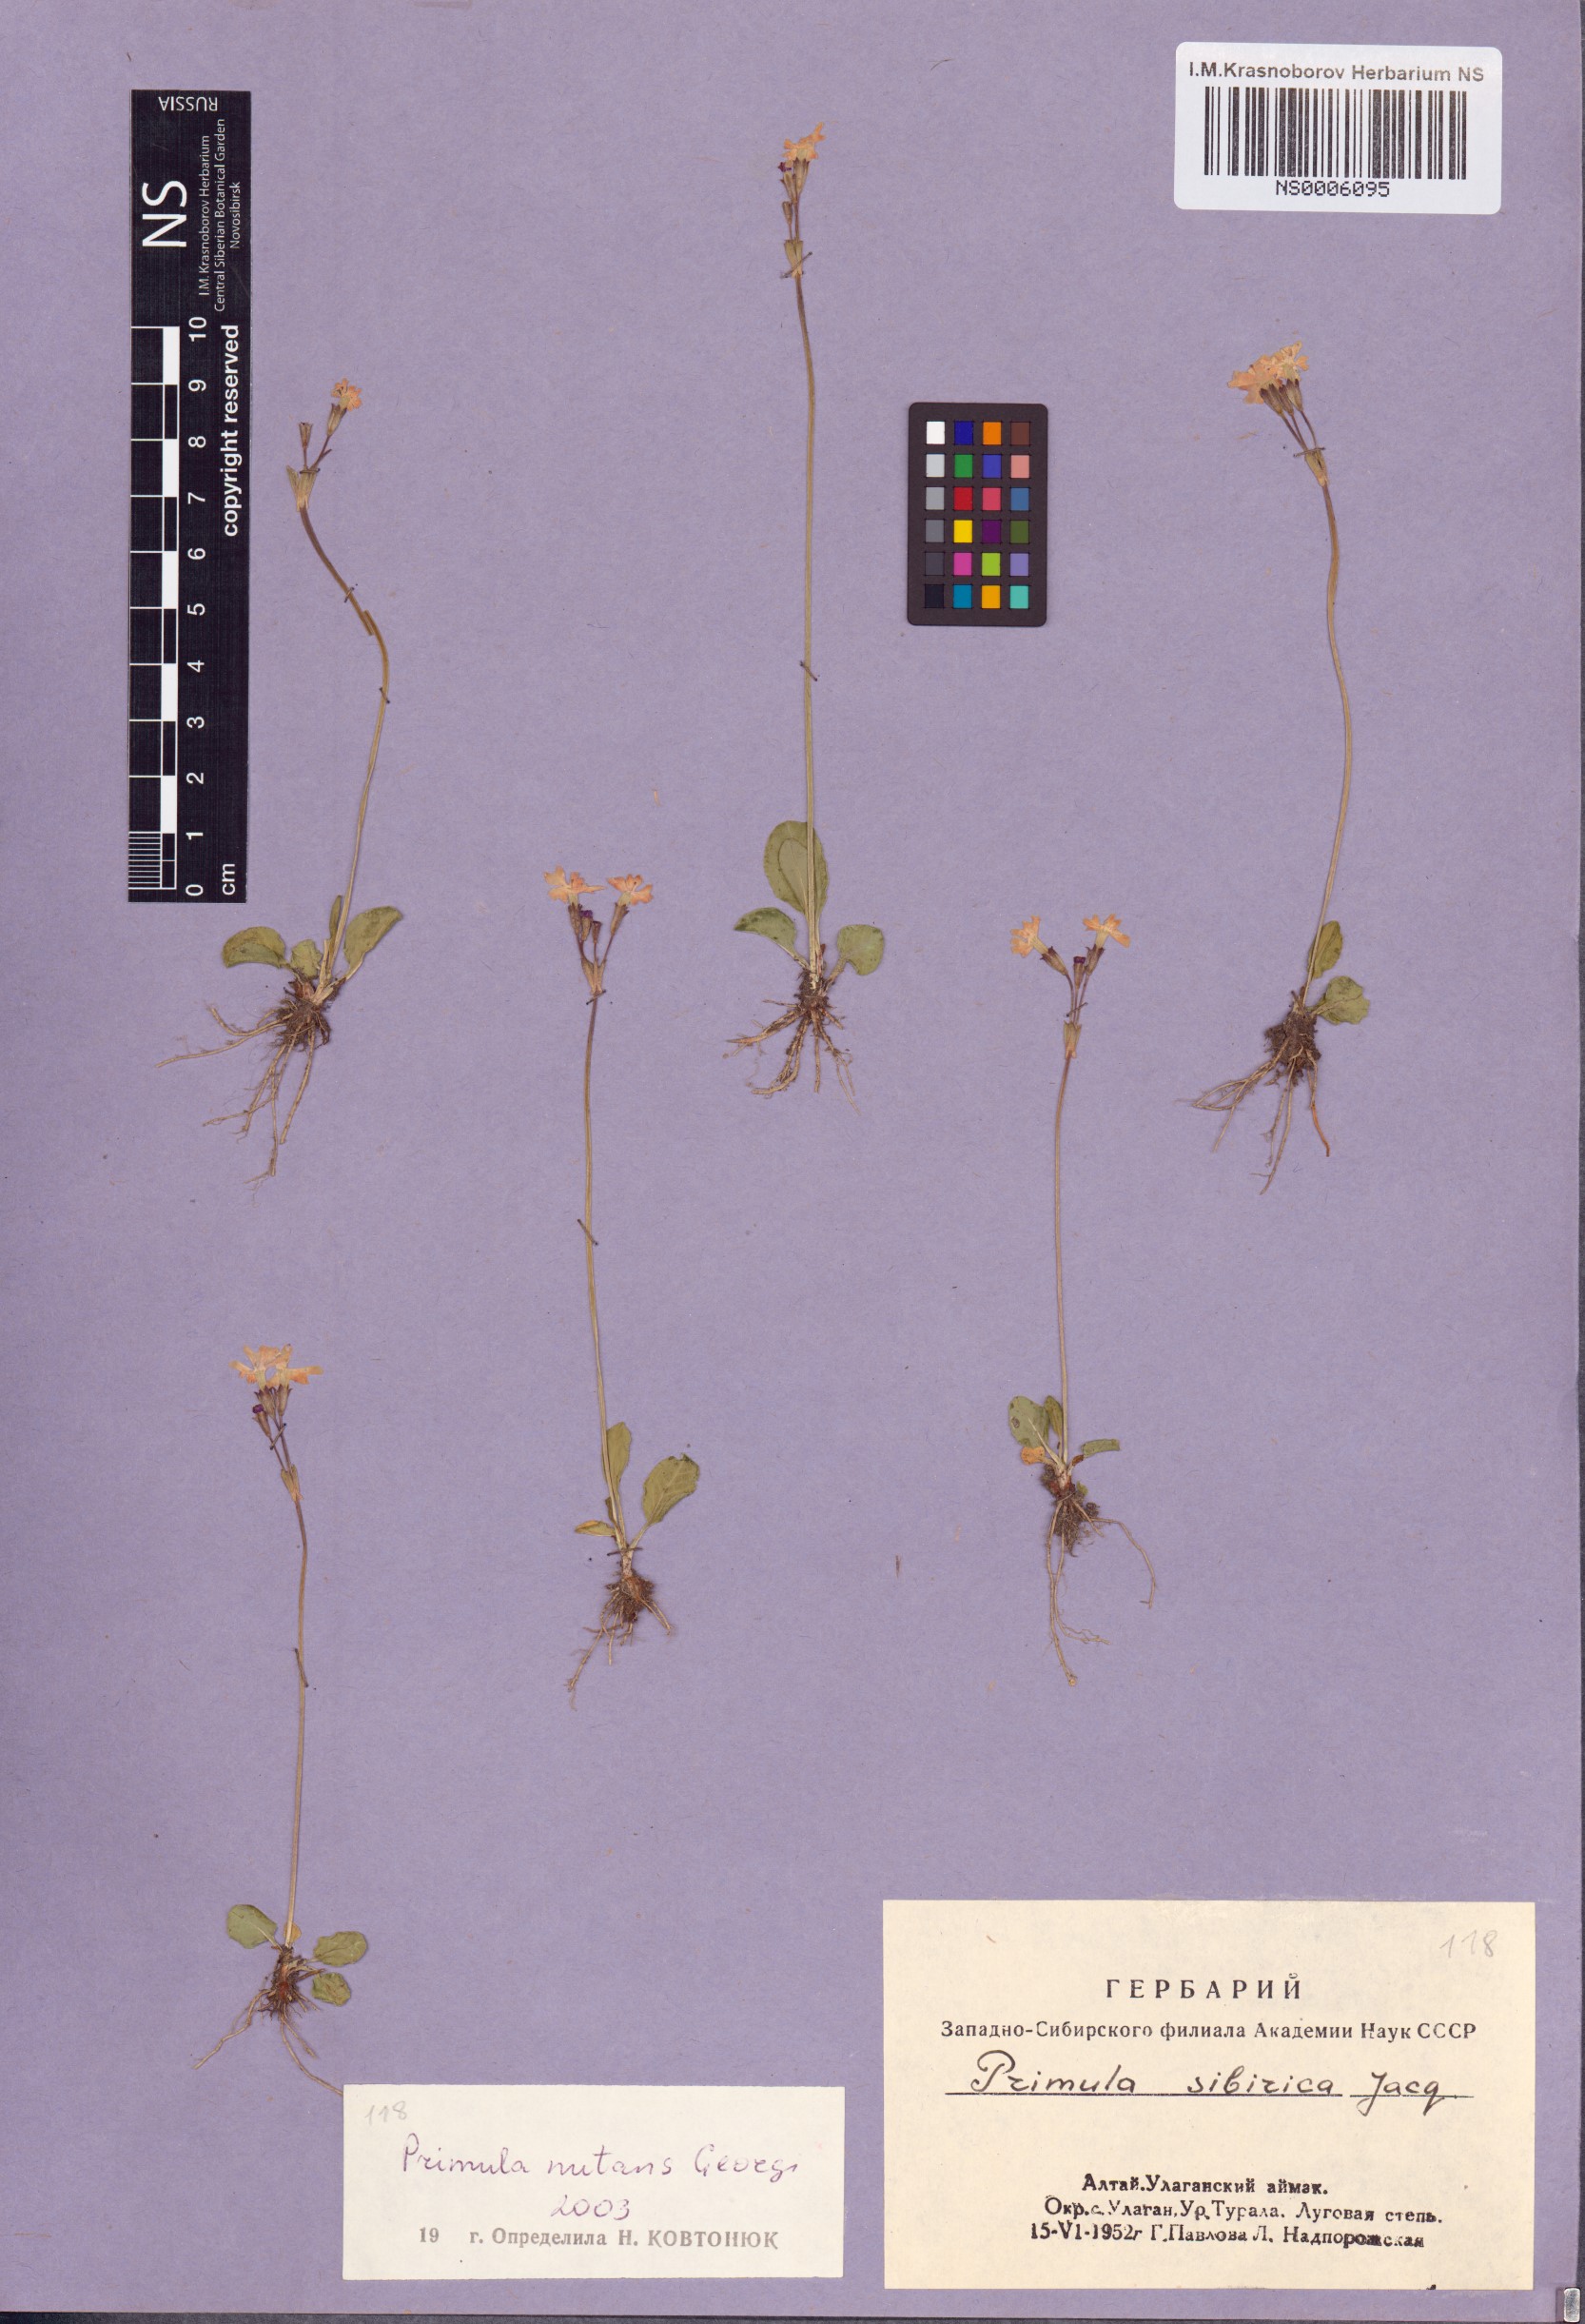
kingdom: Plantae
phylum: Tracheophyta
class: Magnoliopsida
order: Ericales
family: Primulaceae
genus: Primula
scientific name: Primula nutans
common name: Siberian primrose
